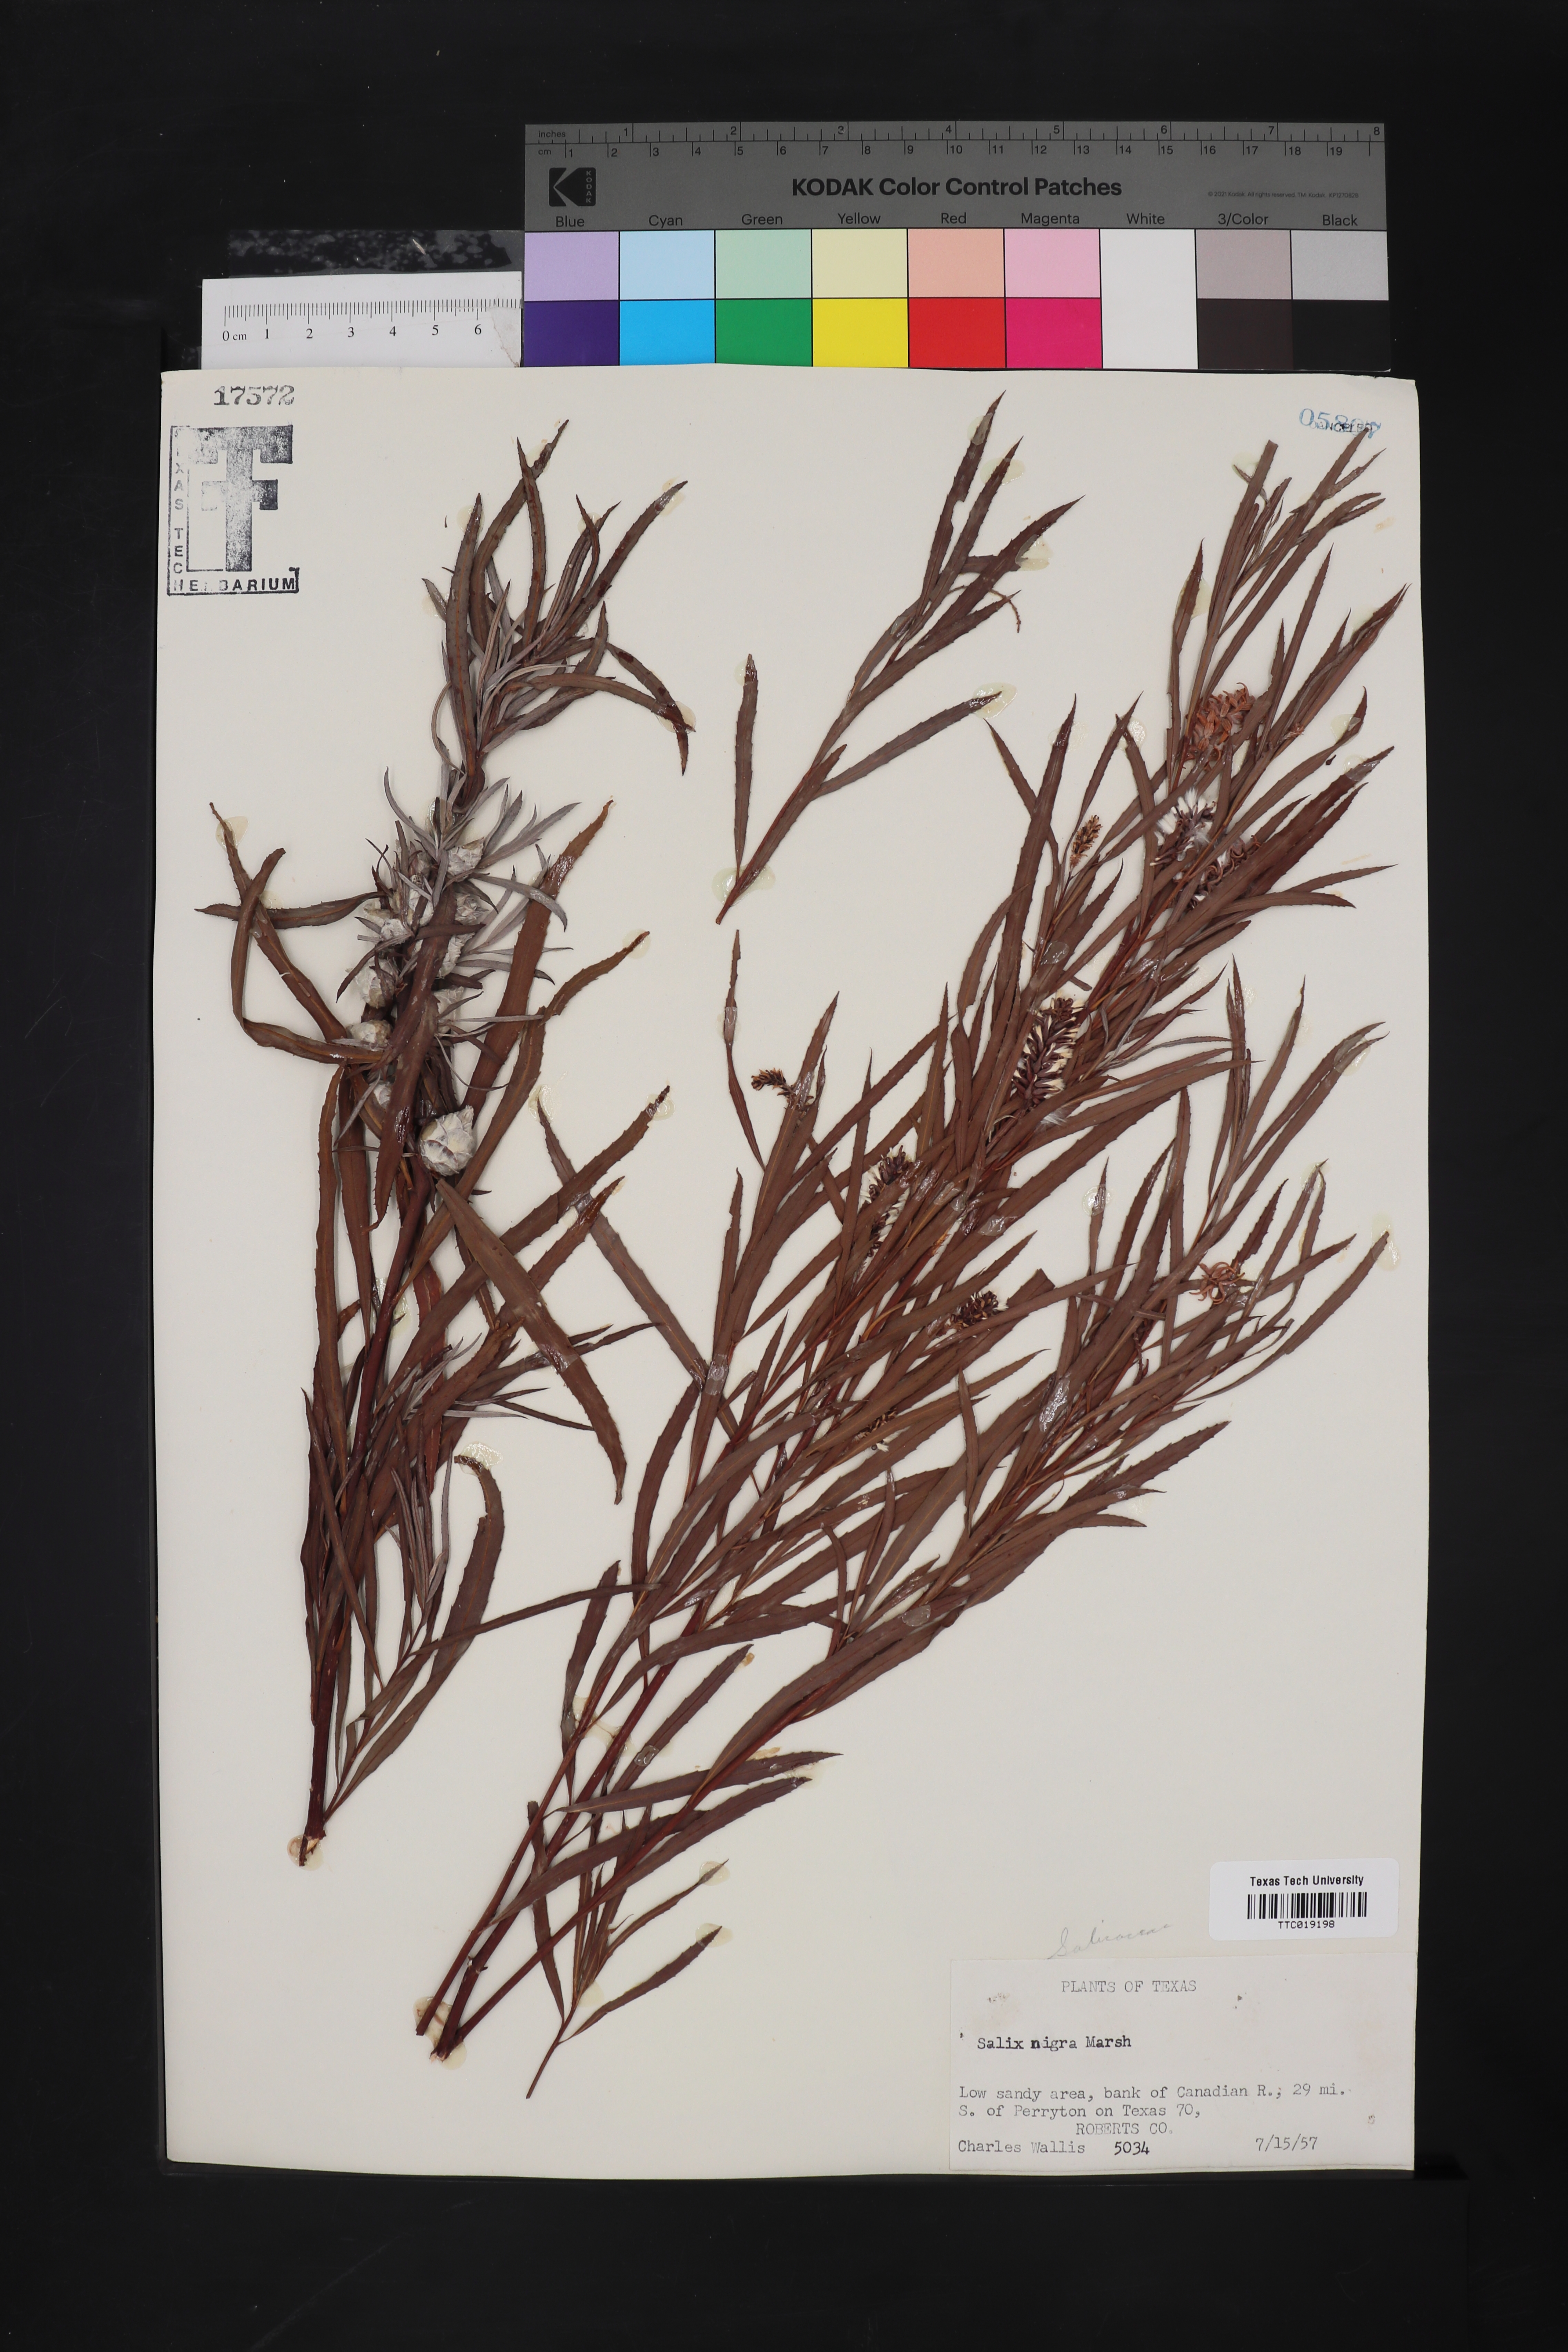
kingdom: Plantae
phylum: Tracheophyta
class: Magnoliopsida
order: Malpighiales
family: Salicaceae
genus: Salix
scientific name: Salix nigra
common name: Black willow
